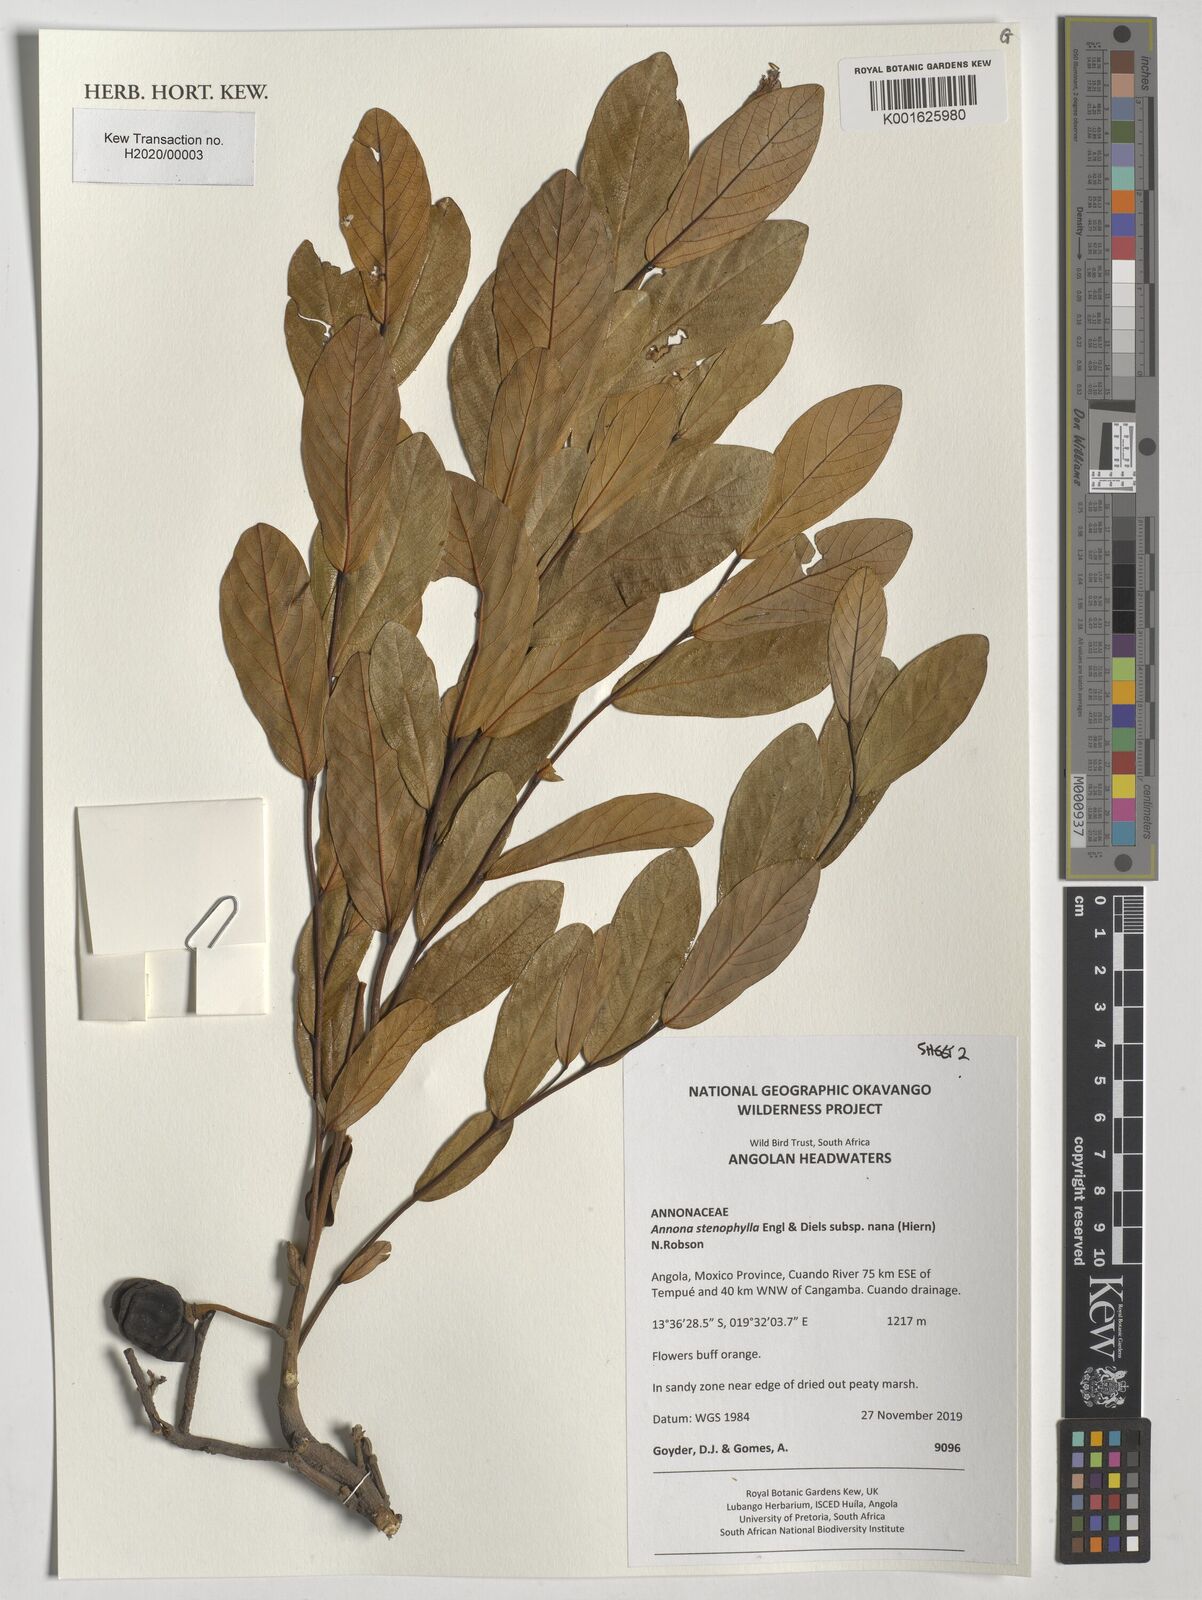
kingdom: Plantae
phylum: Tracheophyta
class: Magnoliopsida
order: Magnoliales
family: Annonaceae
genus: Annona
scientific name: Annona stenophylla
